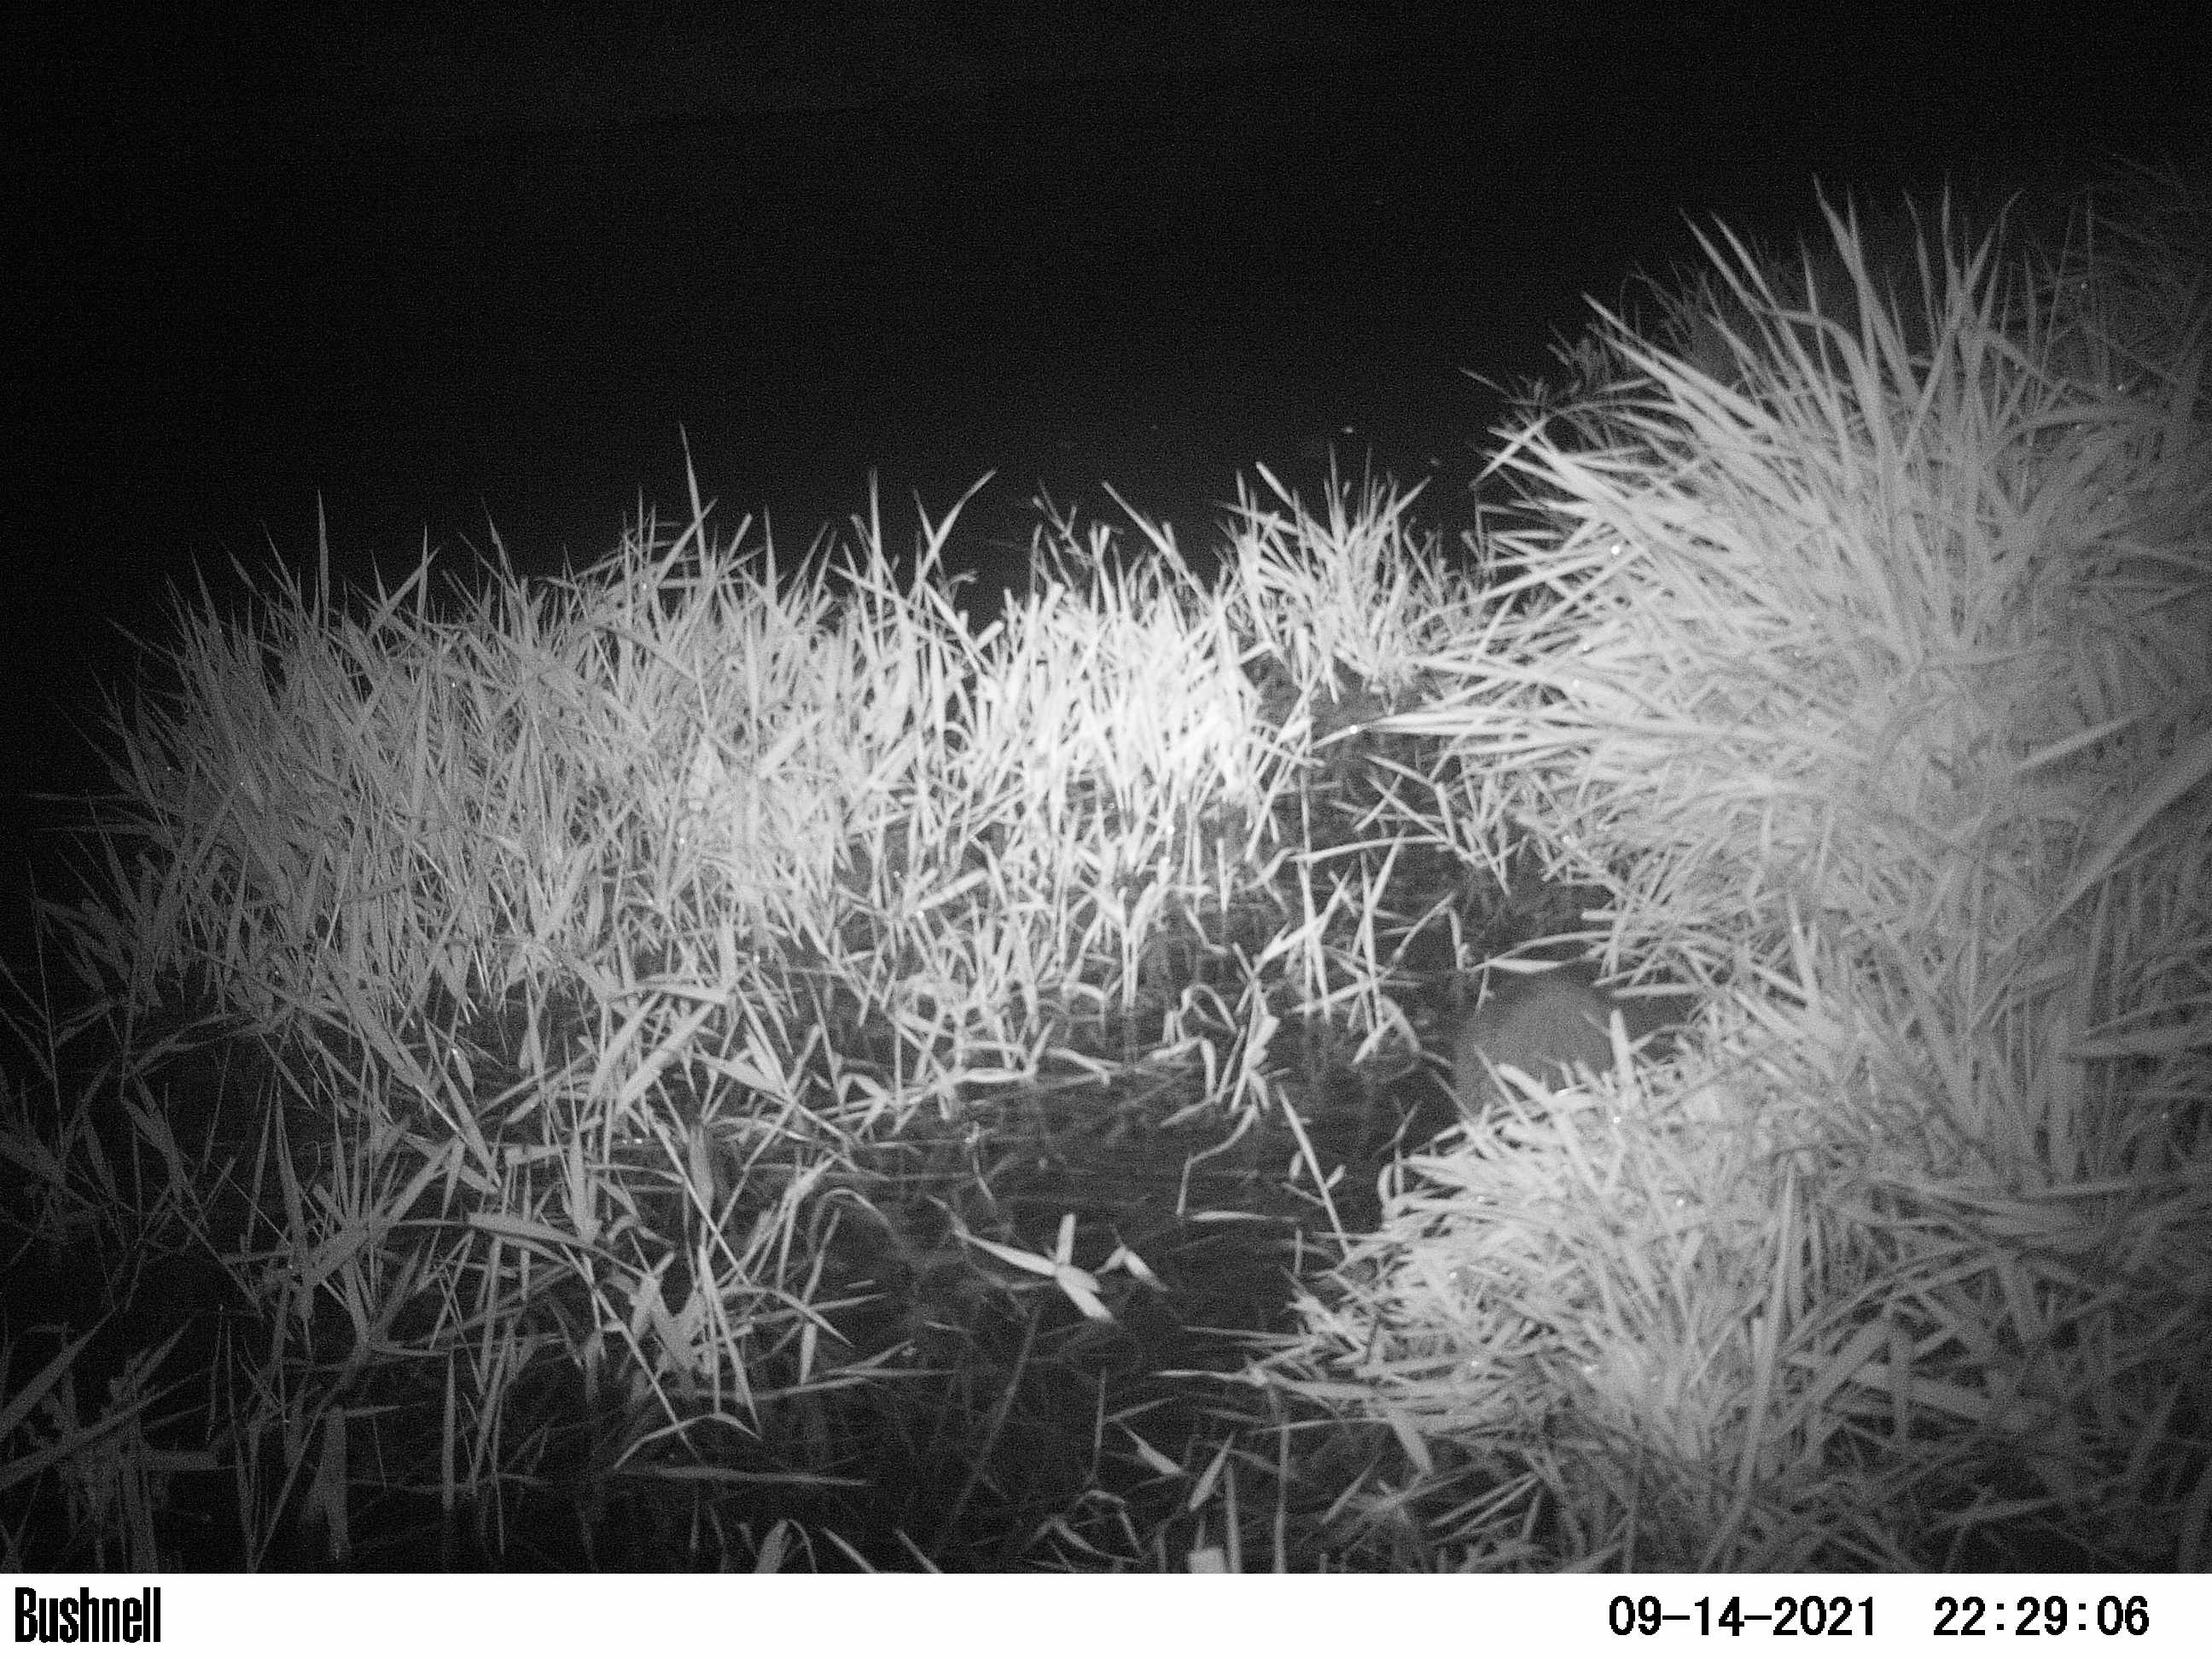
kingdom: Animalia
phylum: Chordata
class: Mammalia
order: Rodentia
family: Cricetidae
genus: Ondatra
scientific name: Ondatra zibethicus
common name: Muskrat
